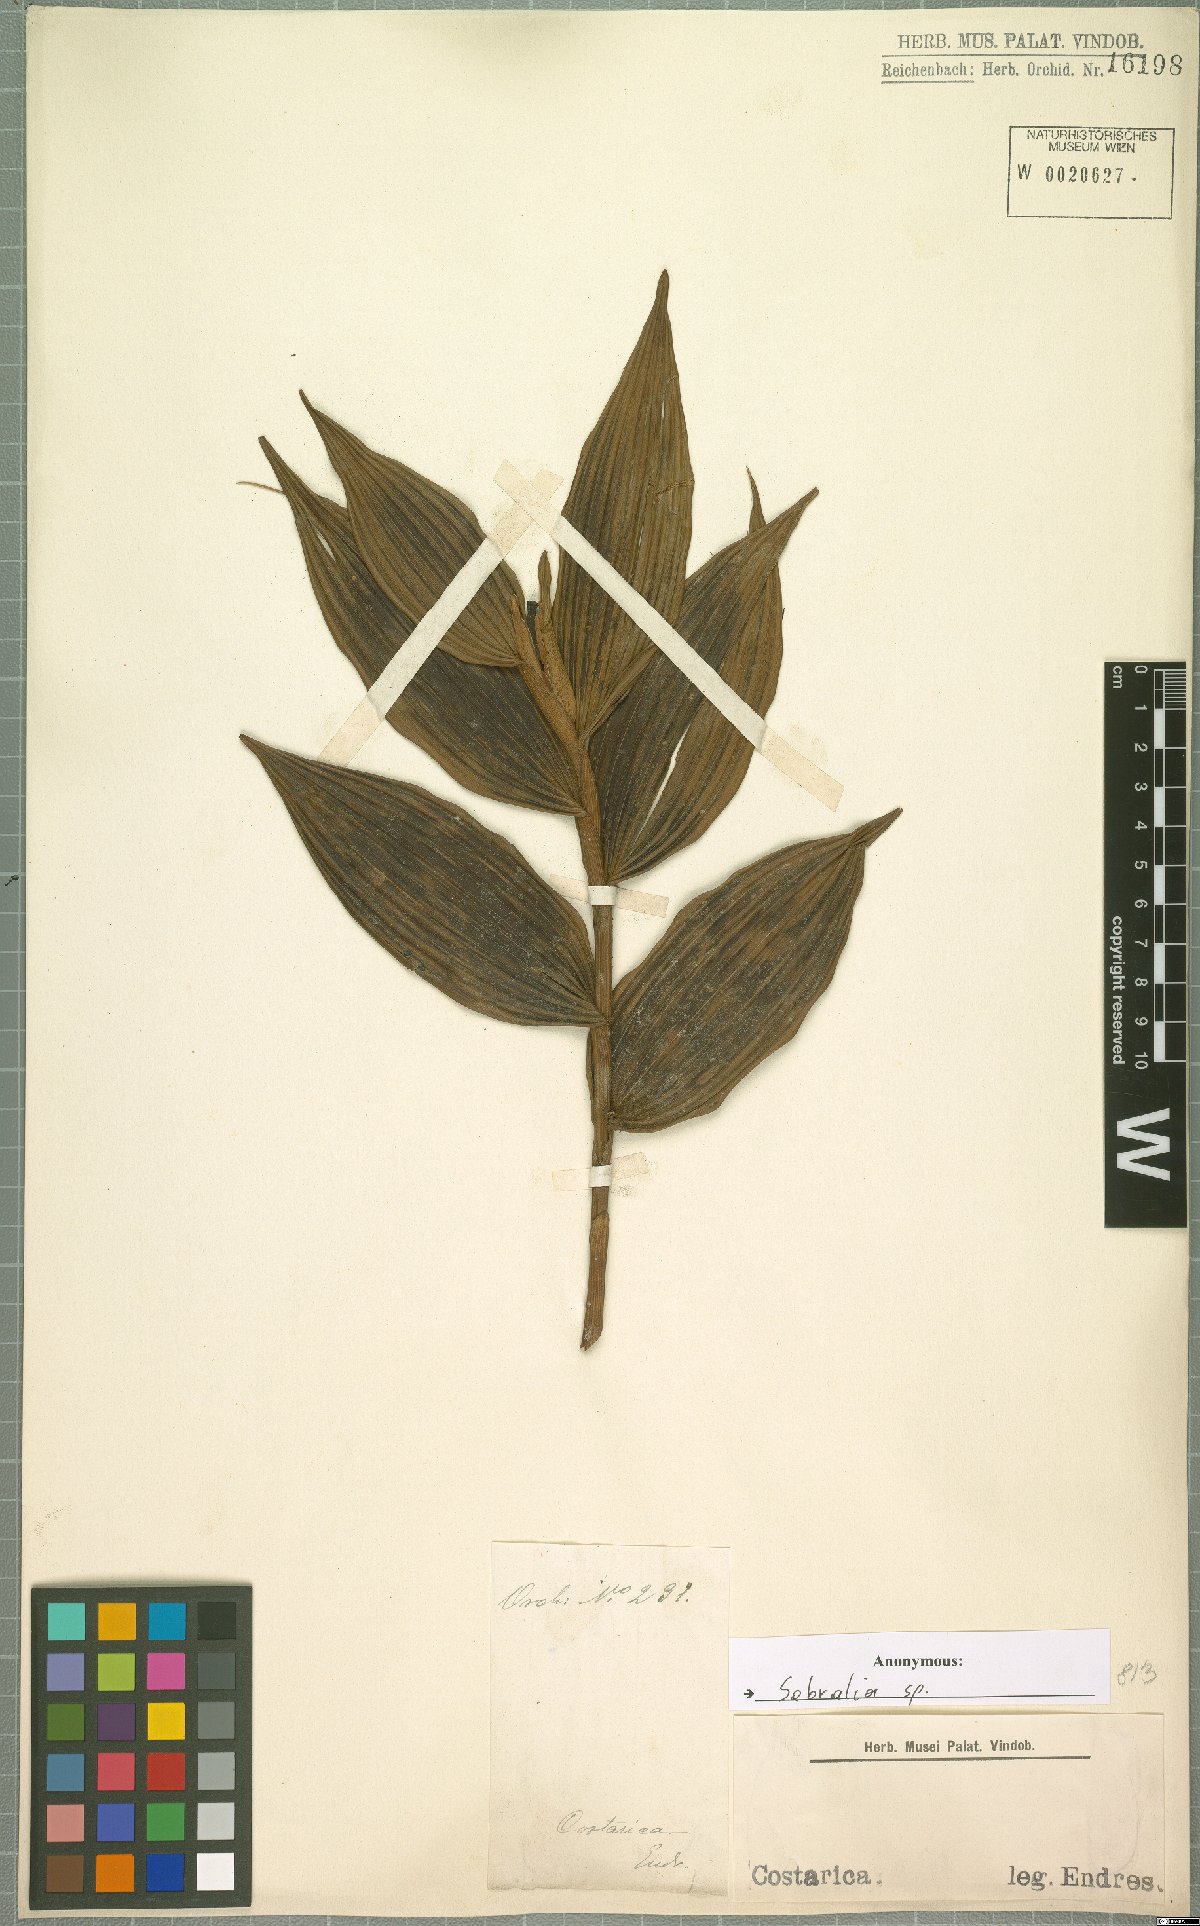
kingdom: Plantae
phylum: Tracheophyta
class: Liliopsida
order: Asparagales
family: Orchidaceae
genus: Sobralia
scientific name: Sobralia
